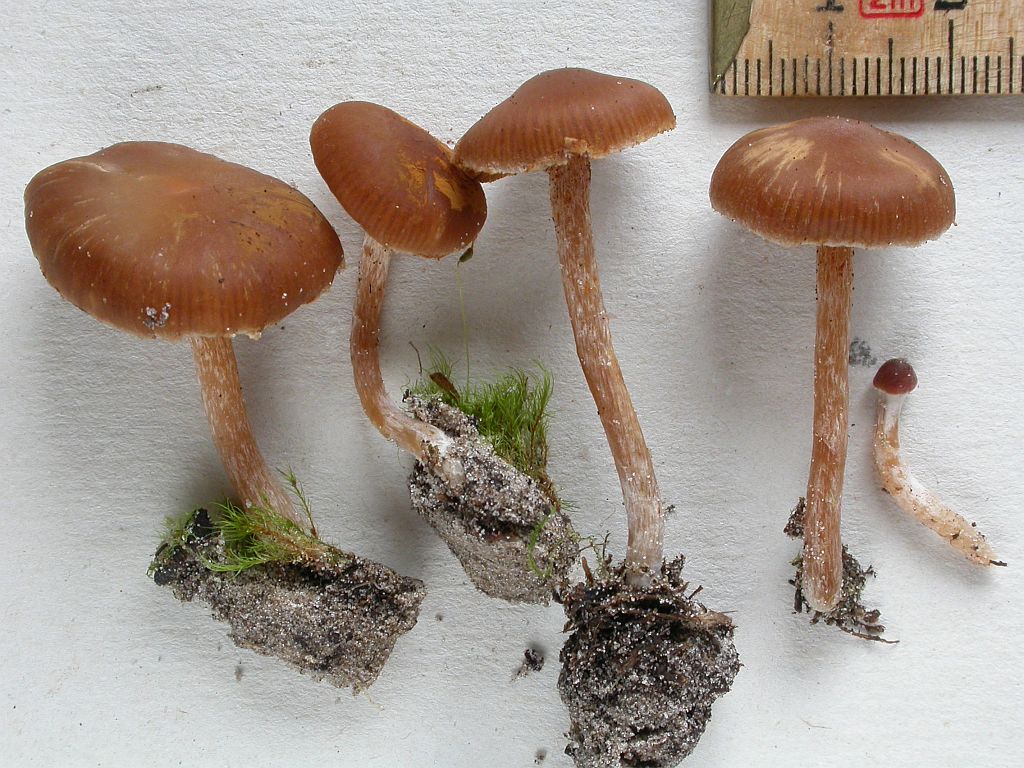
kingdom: Fungi
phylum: Basidiomycota
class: Agaricomycetes
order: Agaricales
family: Cortinariaceae
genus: Cortinarius
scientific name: Cortinarius
